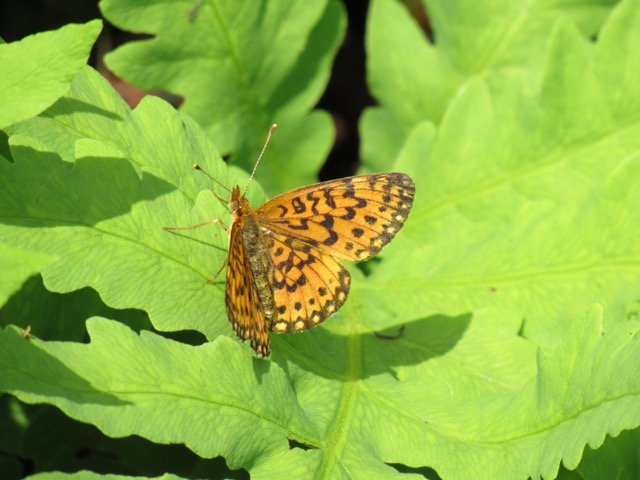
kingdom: Animalia
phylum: Arthropoda
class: Insecta
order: Lepidoptera
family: Nymphalidae
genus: Boloria
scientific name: Boloria selene
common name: Silver-bordered Fritillary
